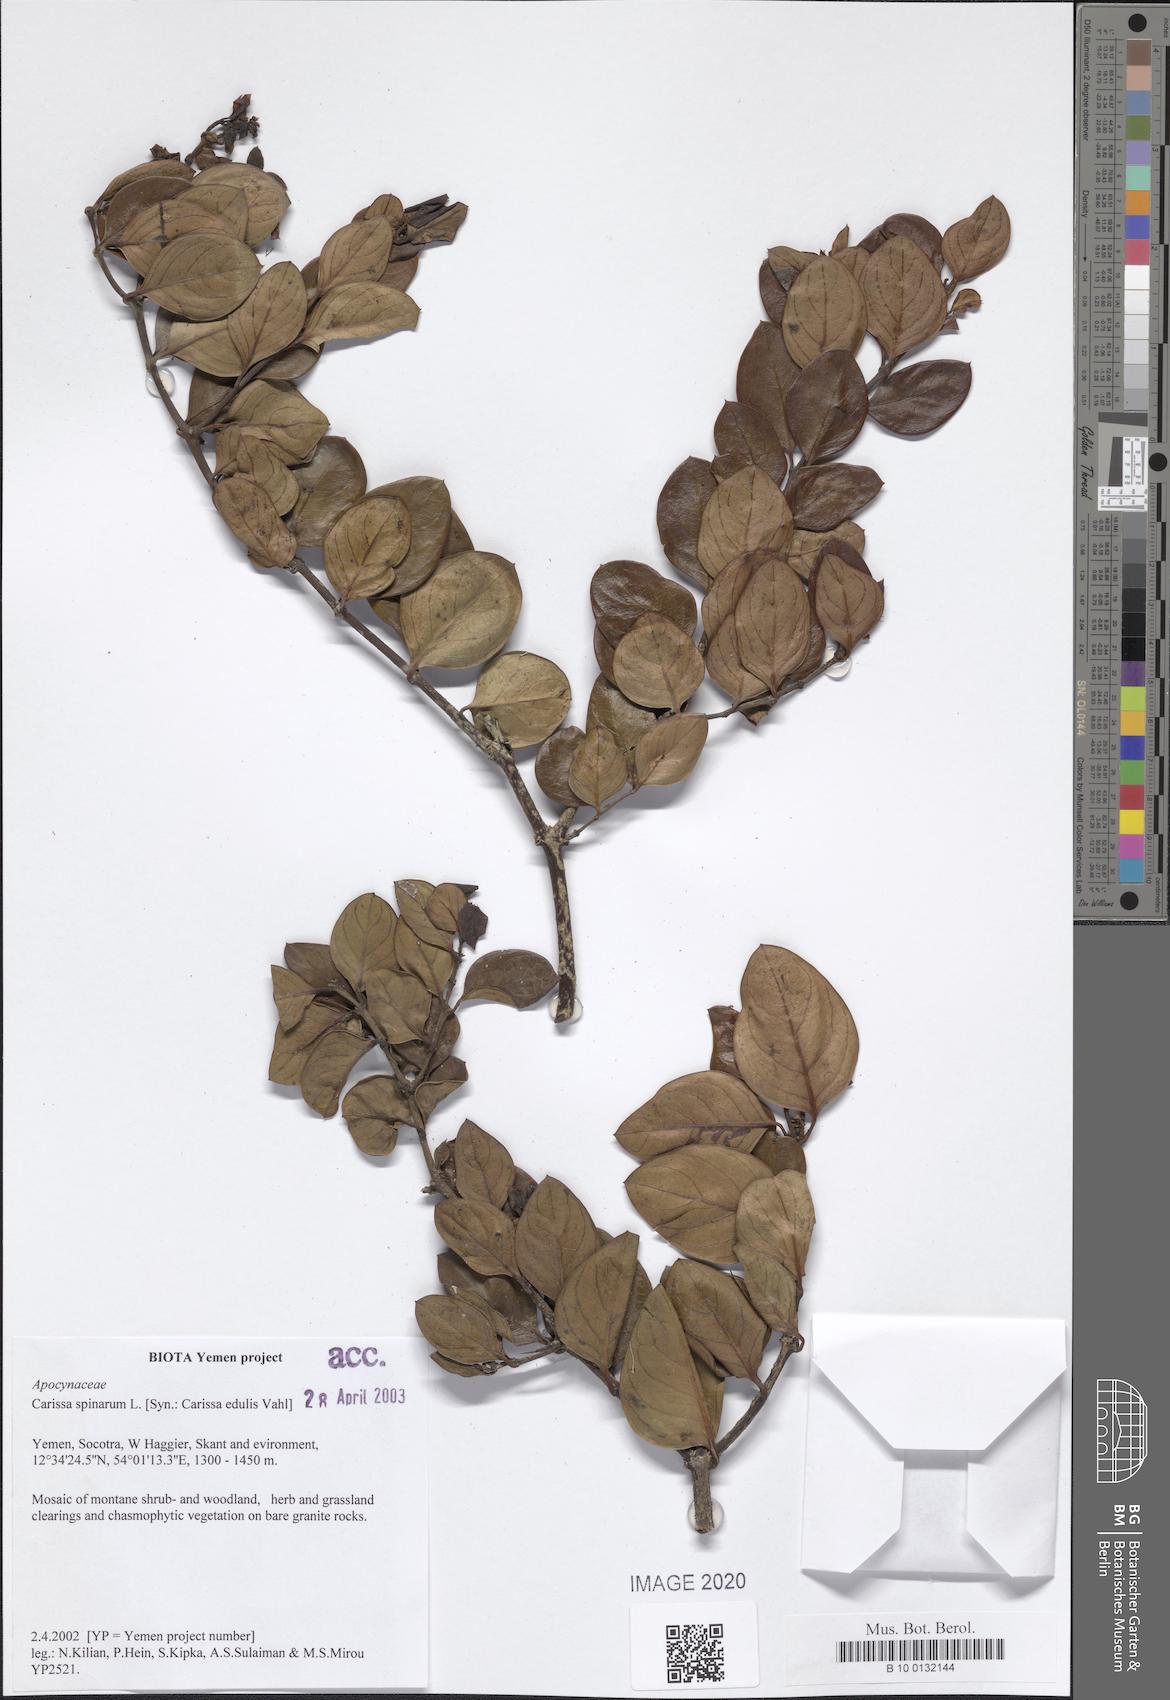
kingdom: Plantae
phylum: Tracheophyta
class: Magnoliopsida
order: Gentianales
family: Apocynaceae
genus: Carissa
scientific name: Carissa spinarum
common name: Egyptian carissa
